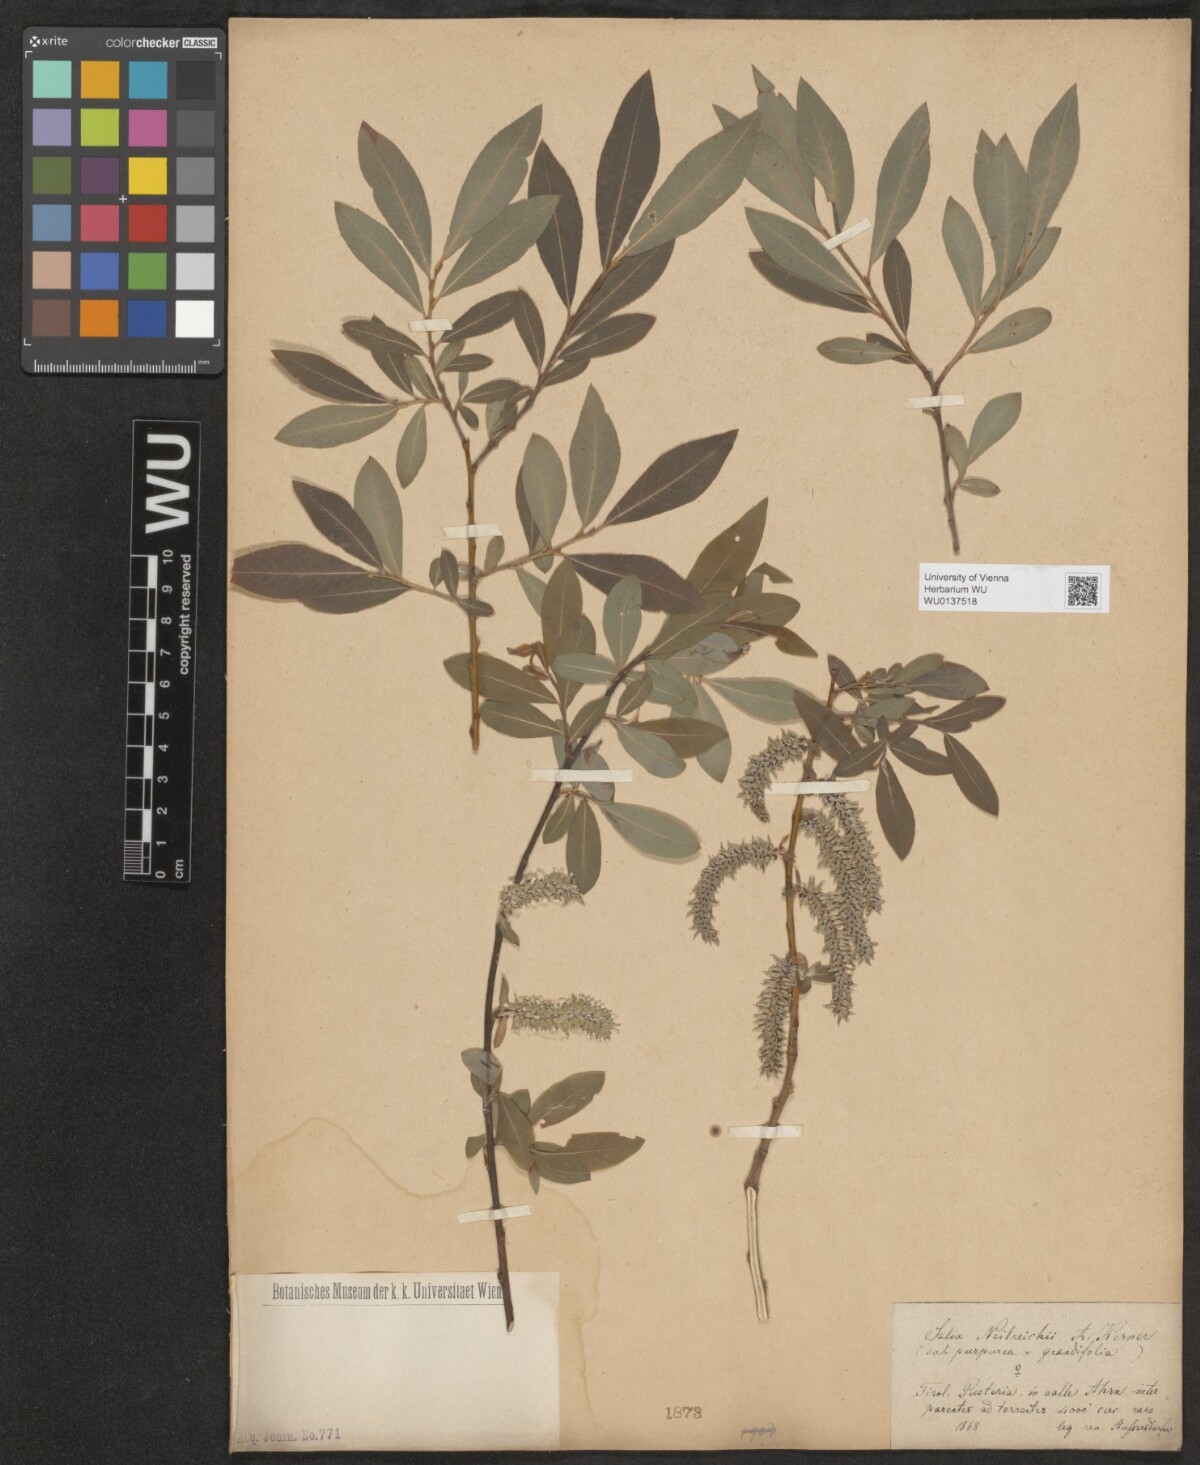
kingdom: Plantae
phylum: Tracheophyta
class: Magnoliopsida
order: Malpighiales
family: Salicaceae
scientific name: Salicaceae
